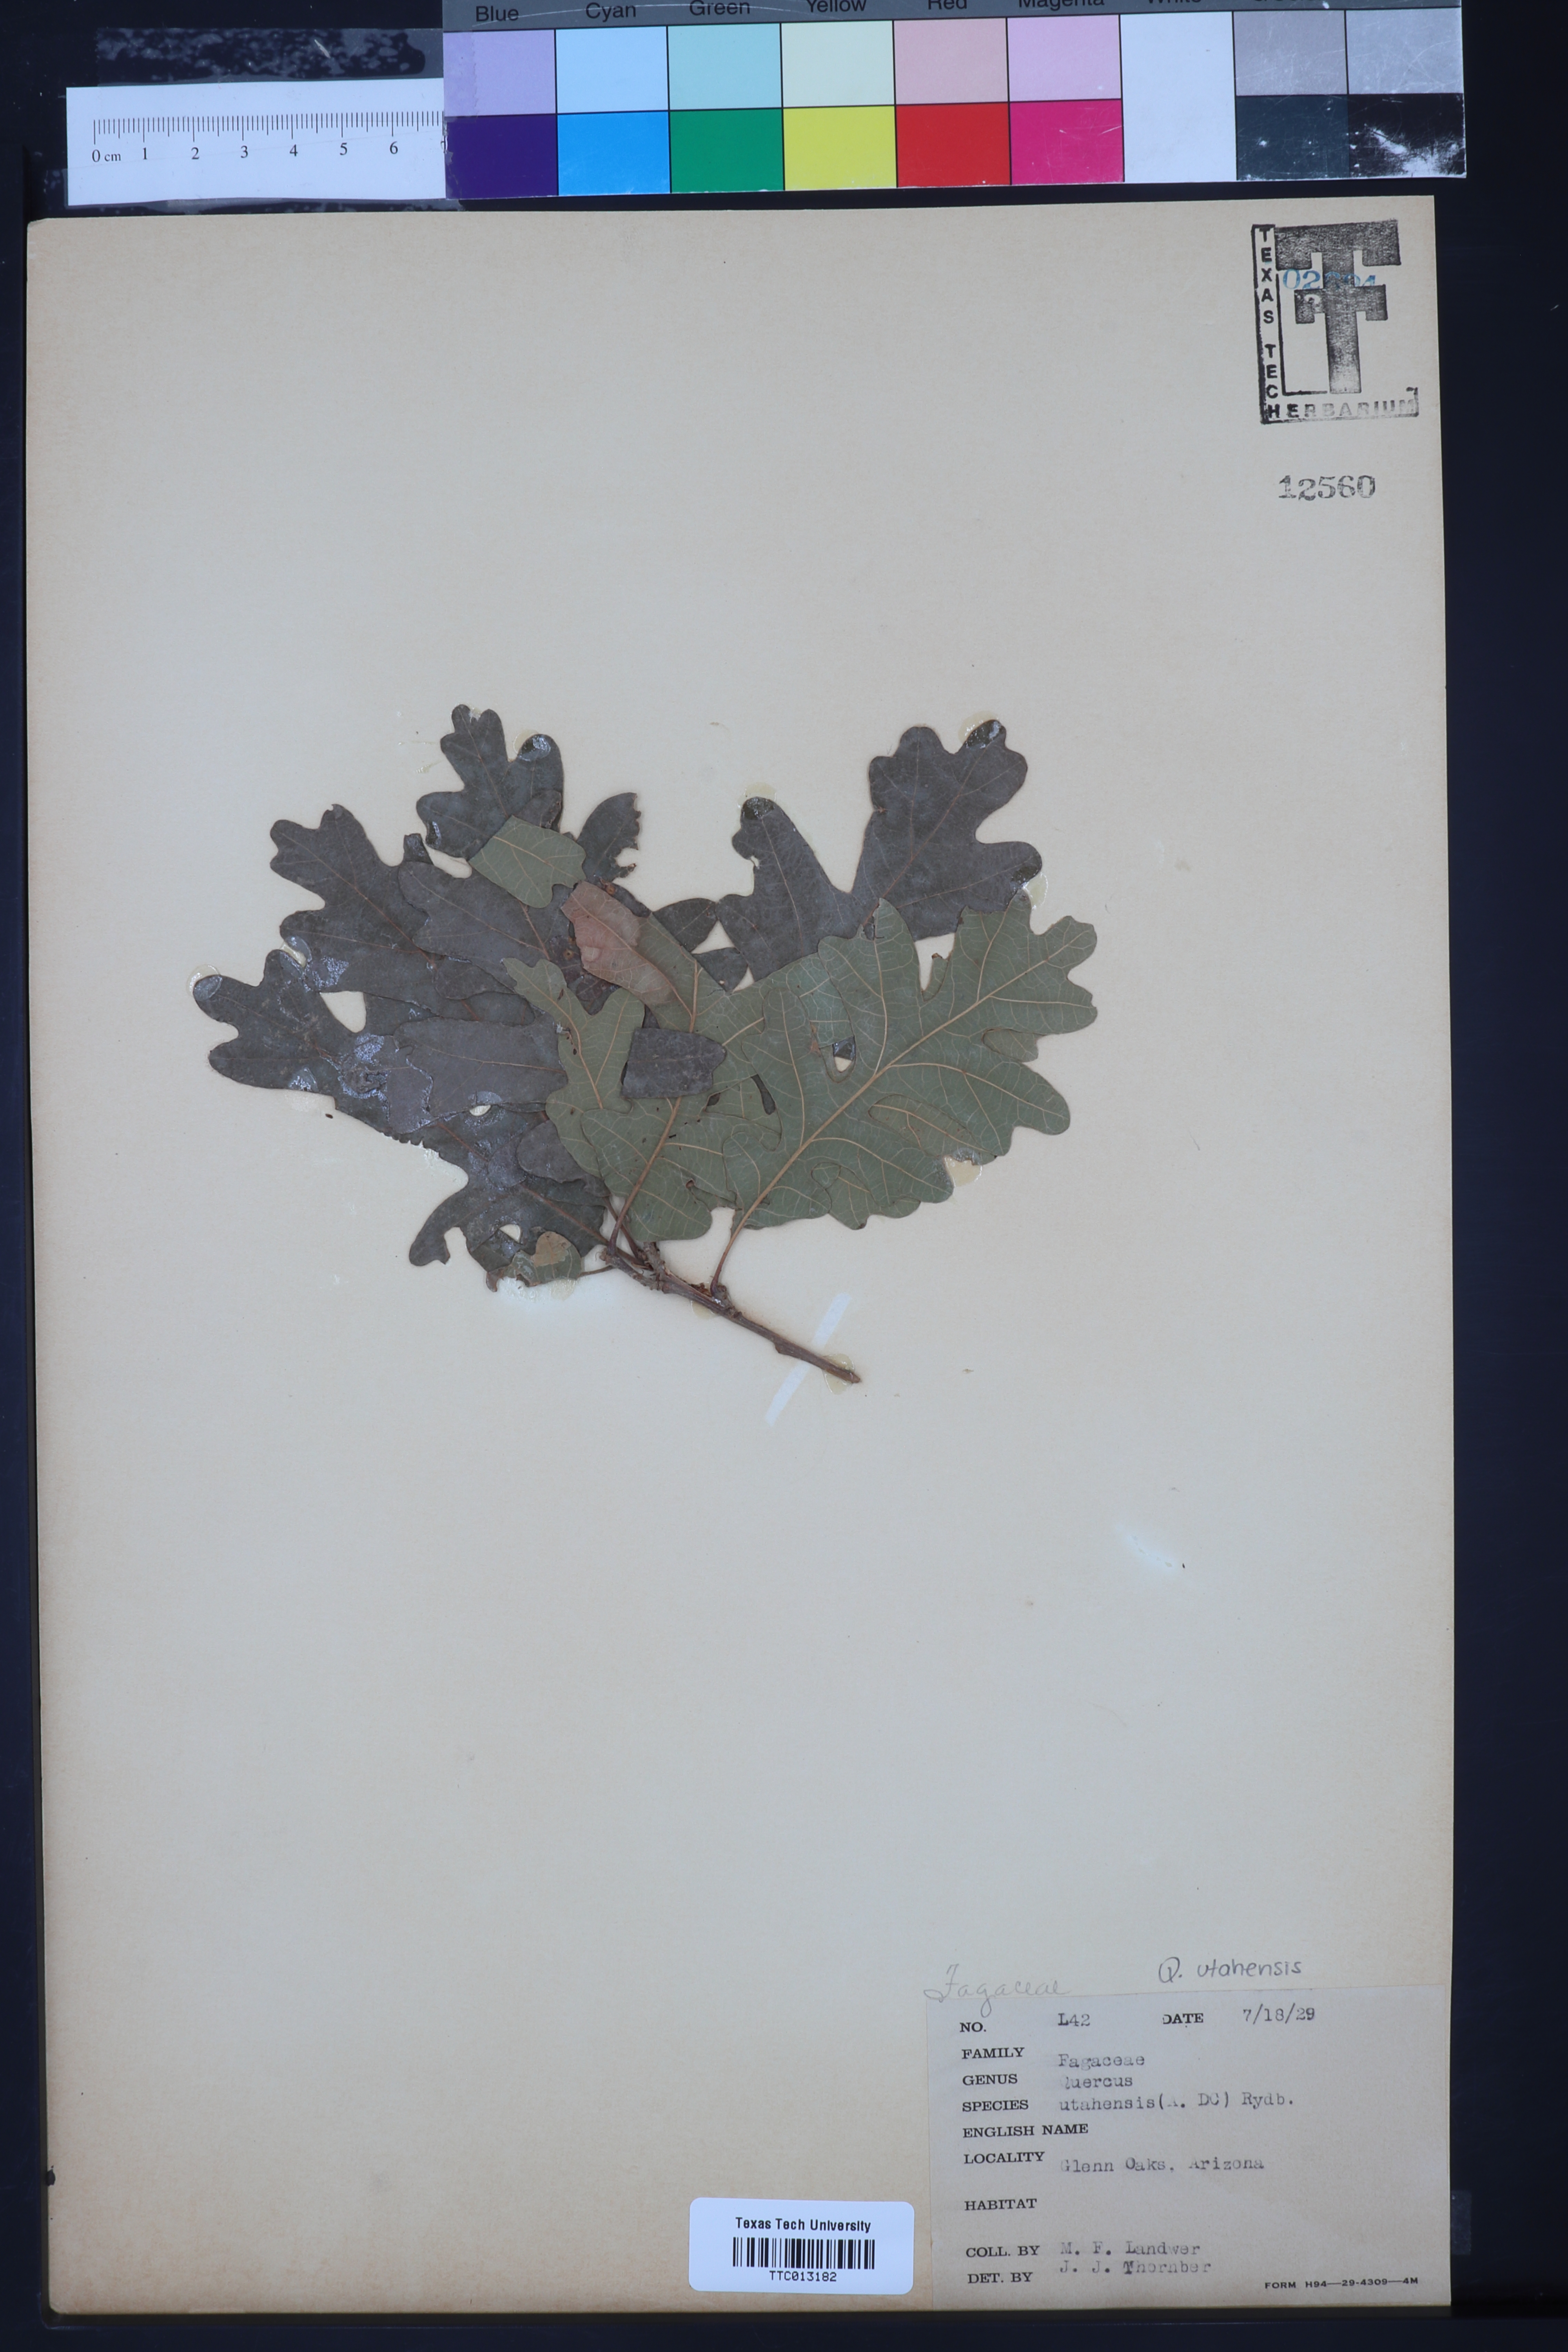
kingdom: Plantae
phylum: Tracheophyta
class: Magnoliopsida
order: Fagales
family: Fagaceae
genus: Quercus
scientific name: Quercus gambelii
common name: Gambel oak
